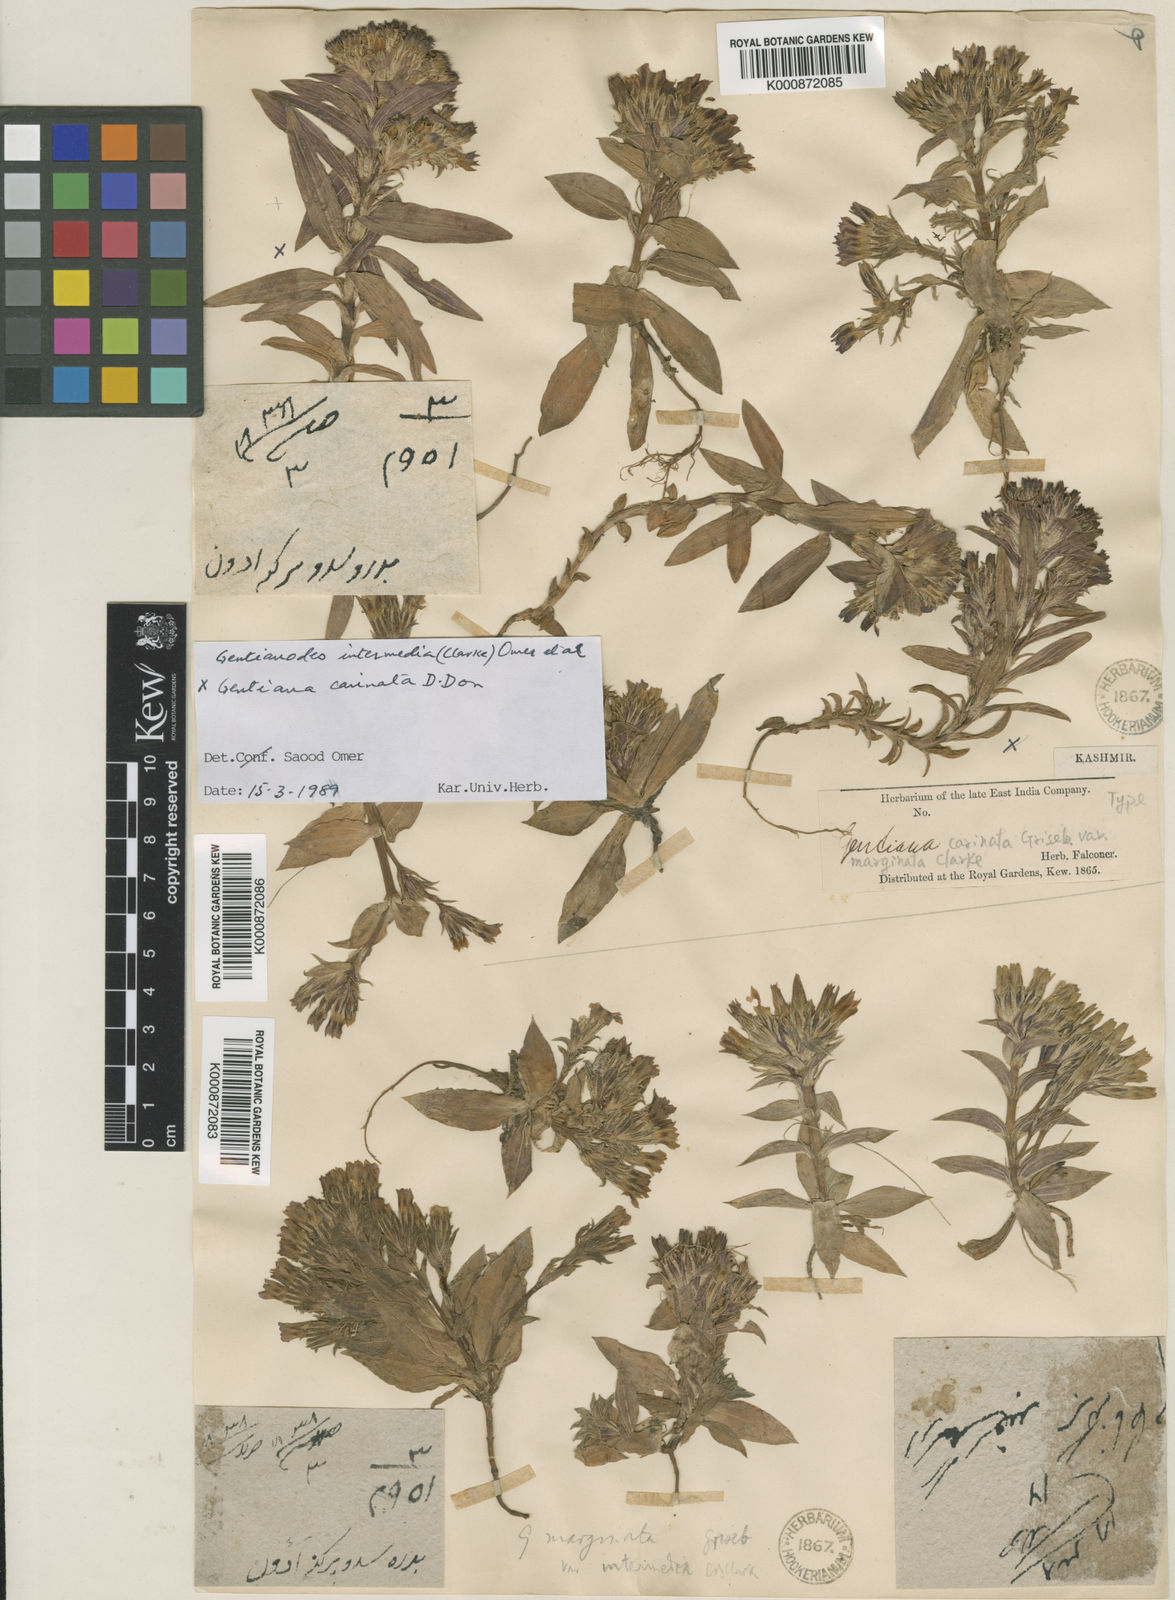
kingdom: Plantae
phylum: Tracheophyta
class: Magnoliopsida
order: Gentianales
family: Gentianaceae
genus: Gentiana
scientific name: Gentiana membranulifera
